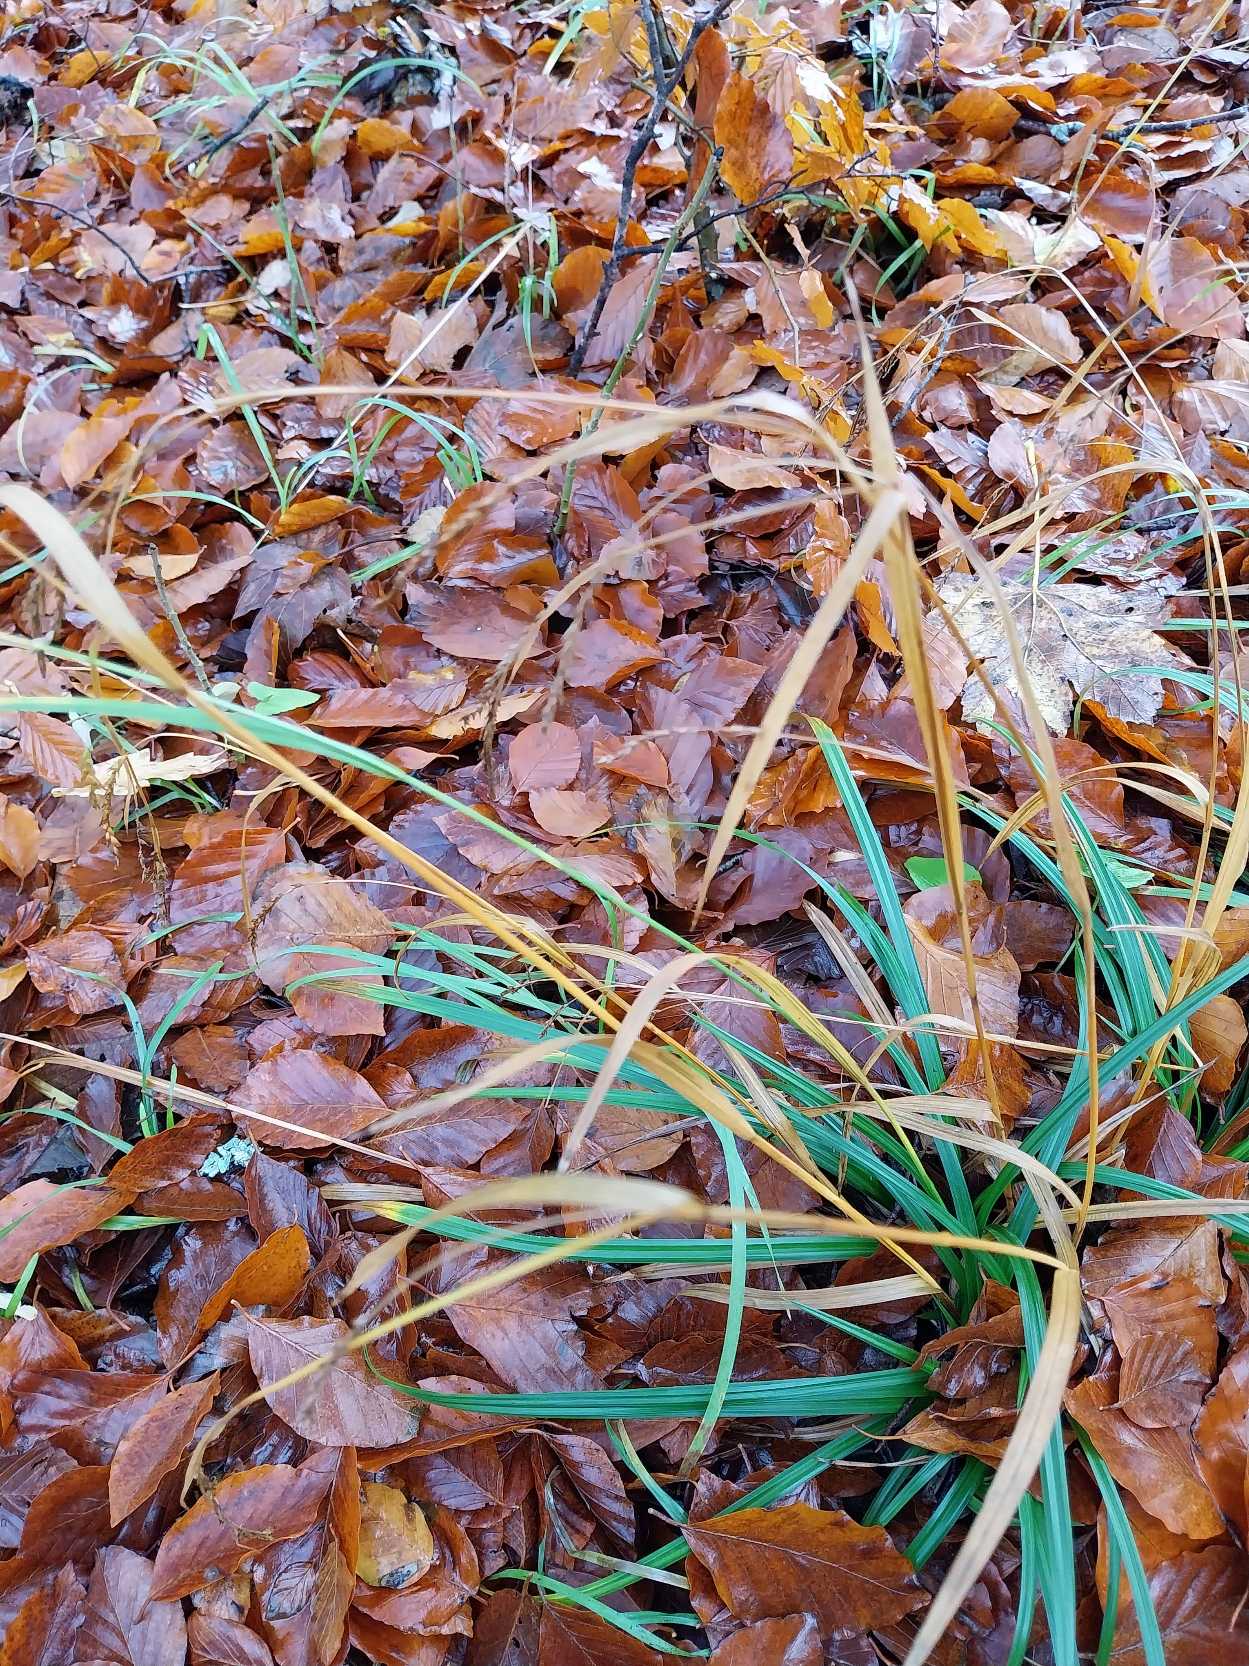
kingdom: Plantae
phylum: Tracheophyta
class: Liliopsida
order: Poales
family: Cyperaceae
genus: Carex
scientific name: Carex sylvatica
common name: Skov-star
